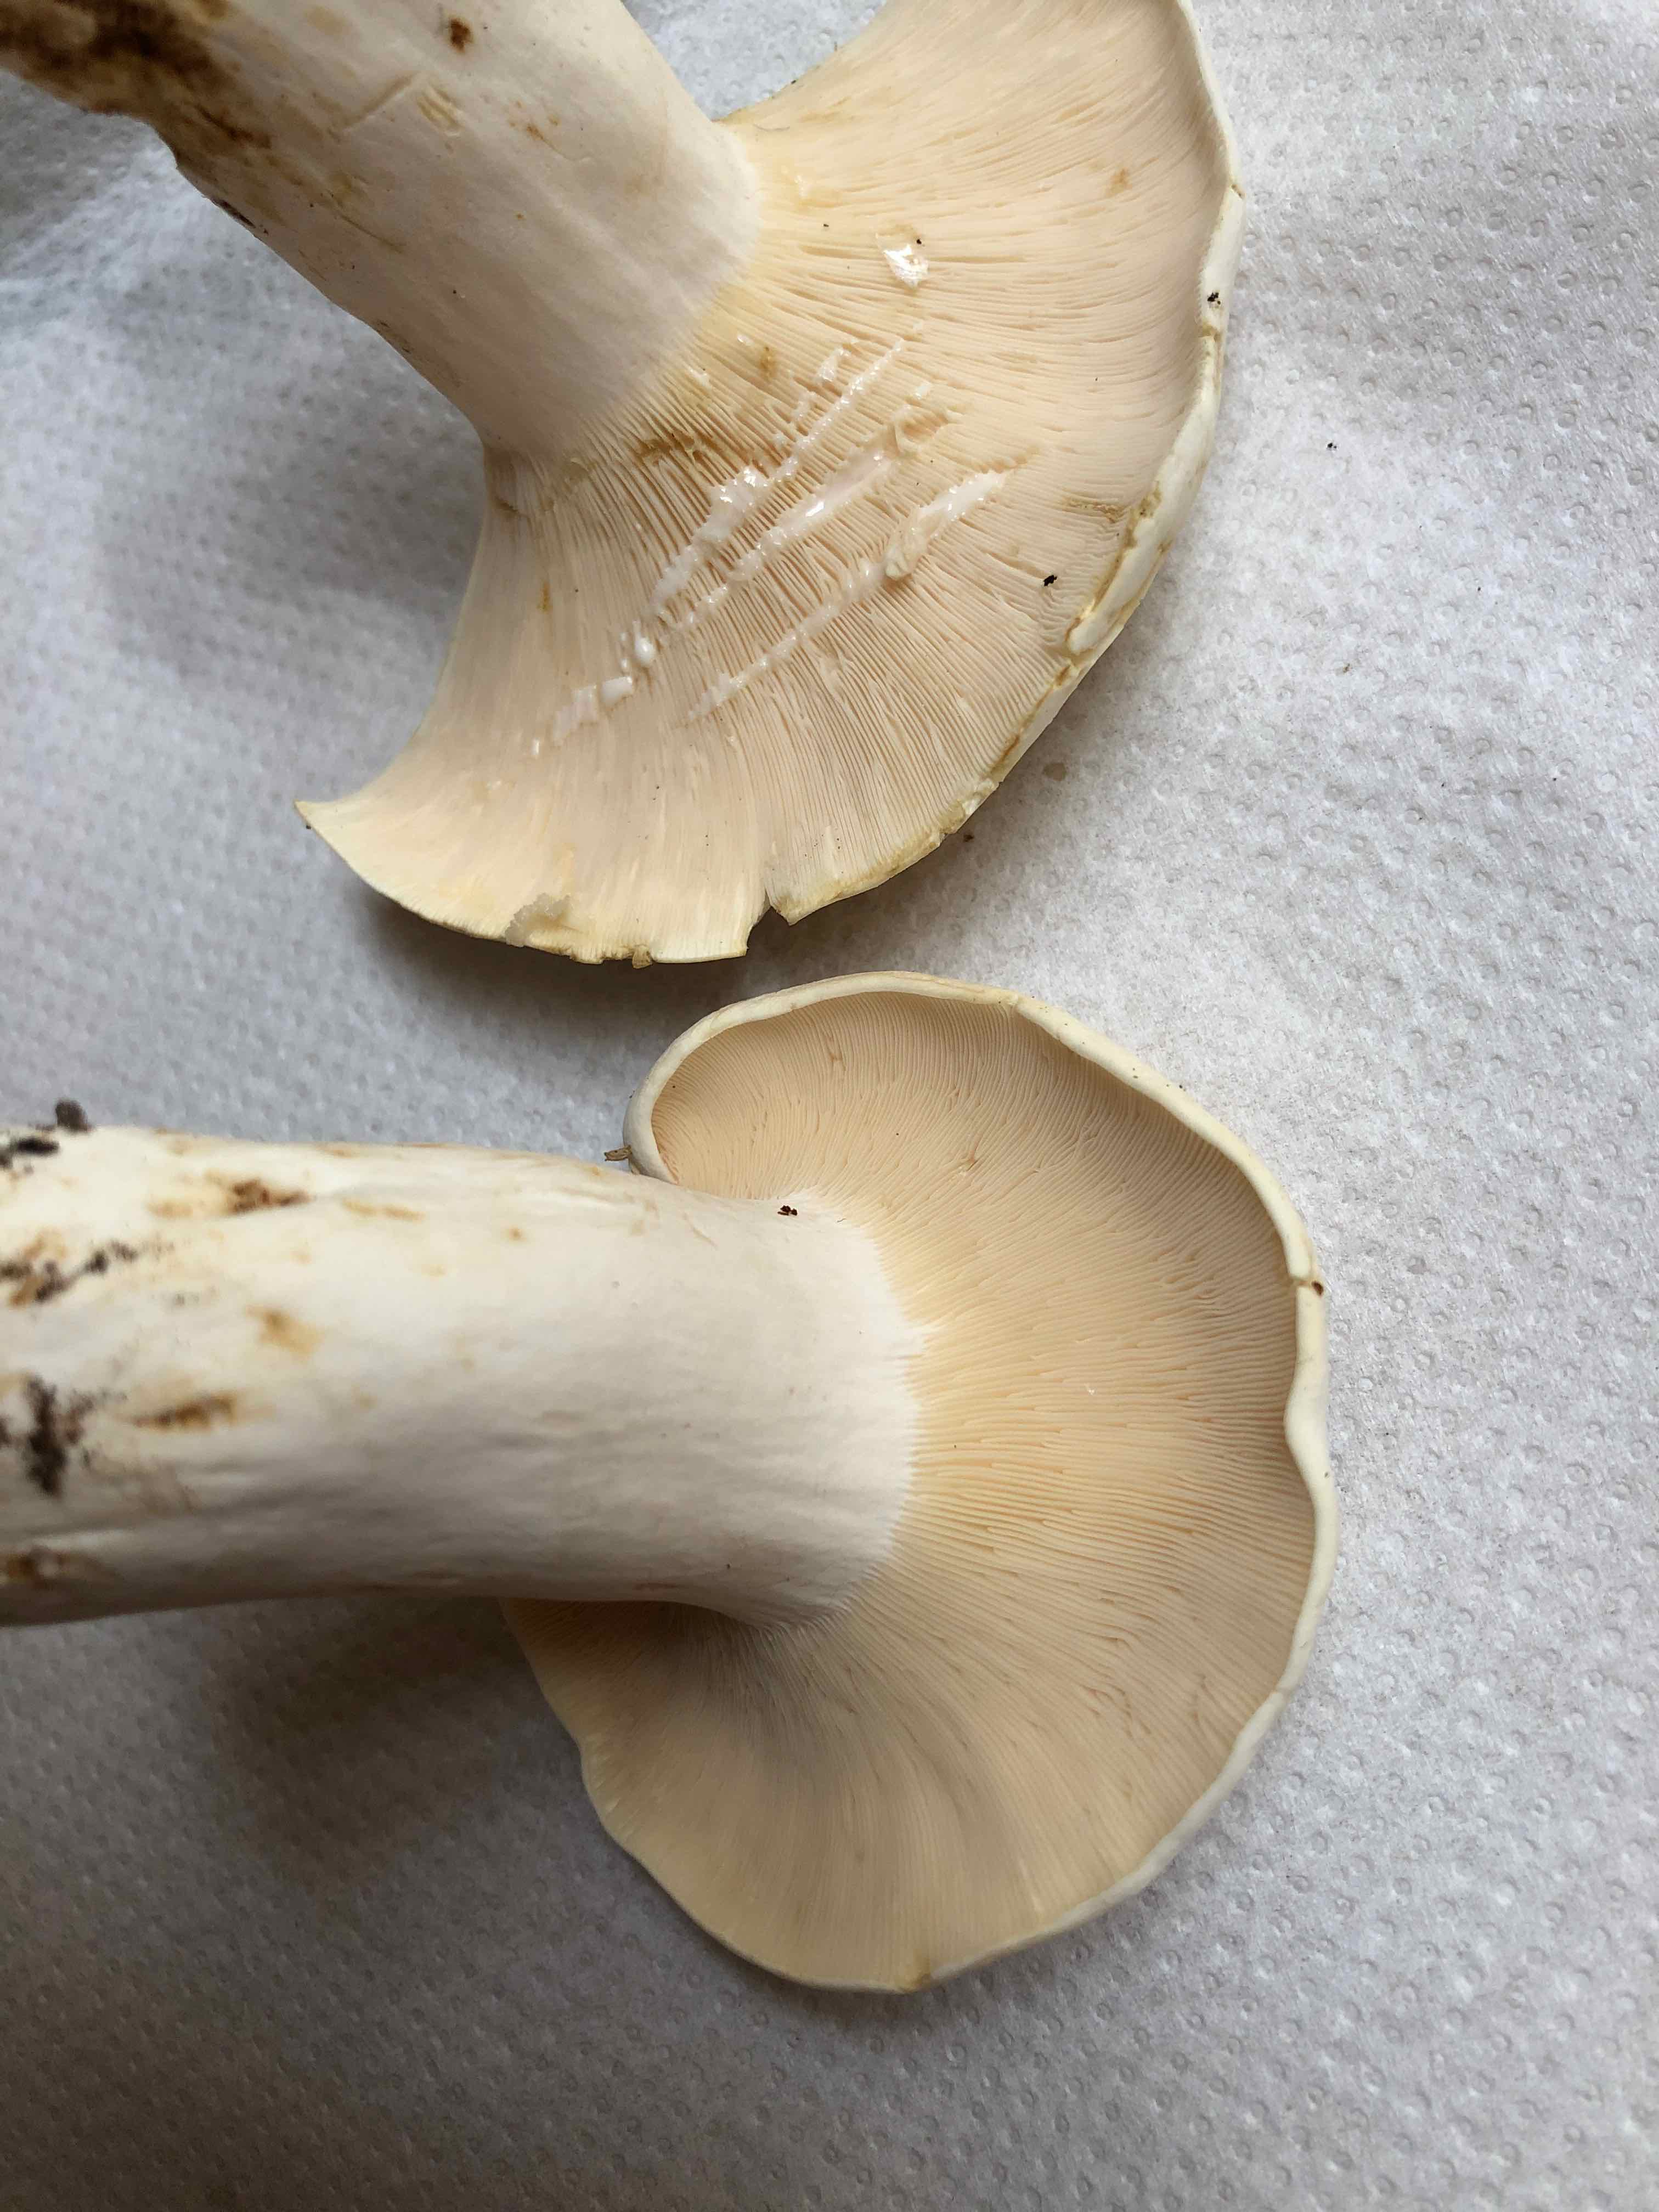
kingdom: Fungi
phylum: Basidiomycota
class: Agaricomycetes
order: Russulales
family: Russulaceae
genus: Lactifluus
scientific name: Lactifluus
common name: mælkehat
